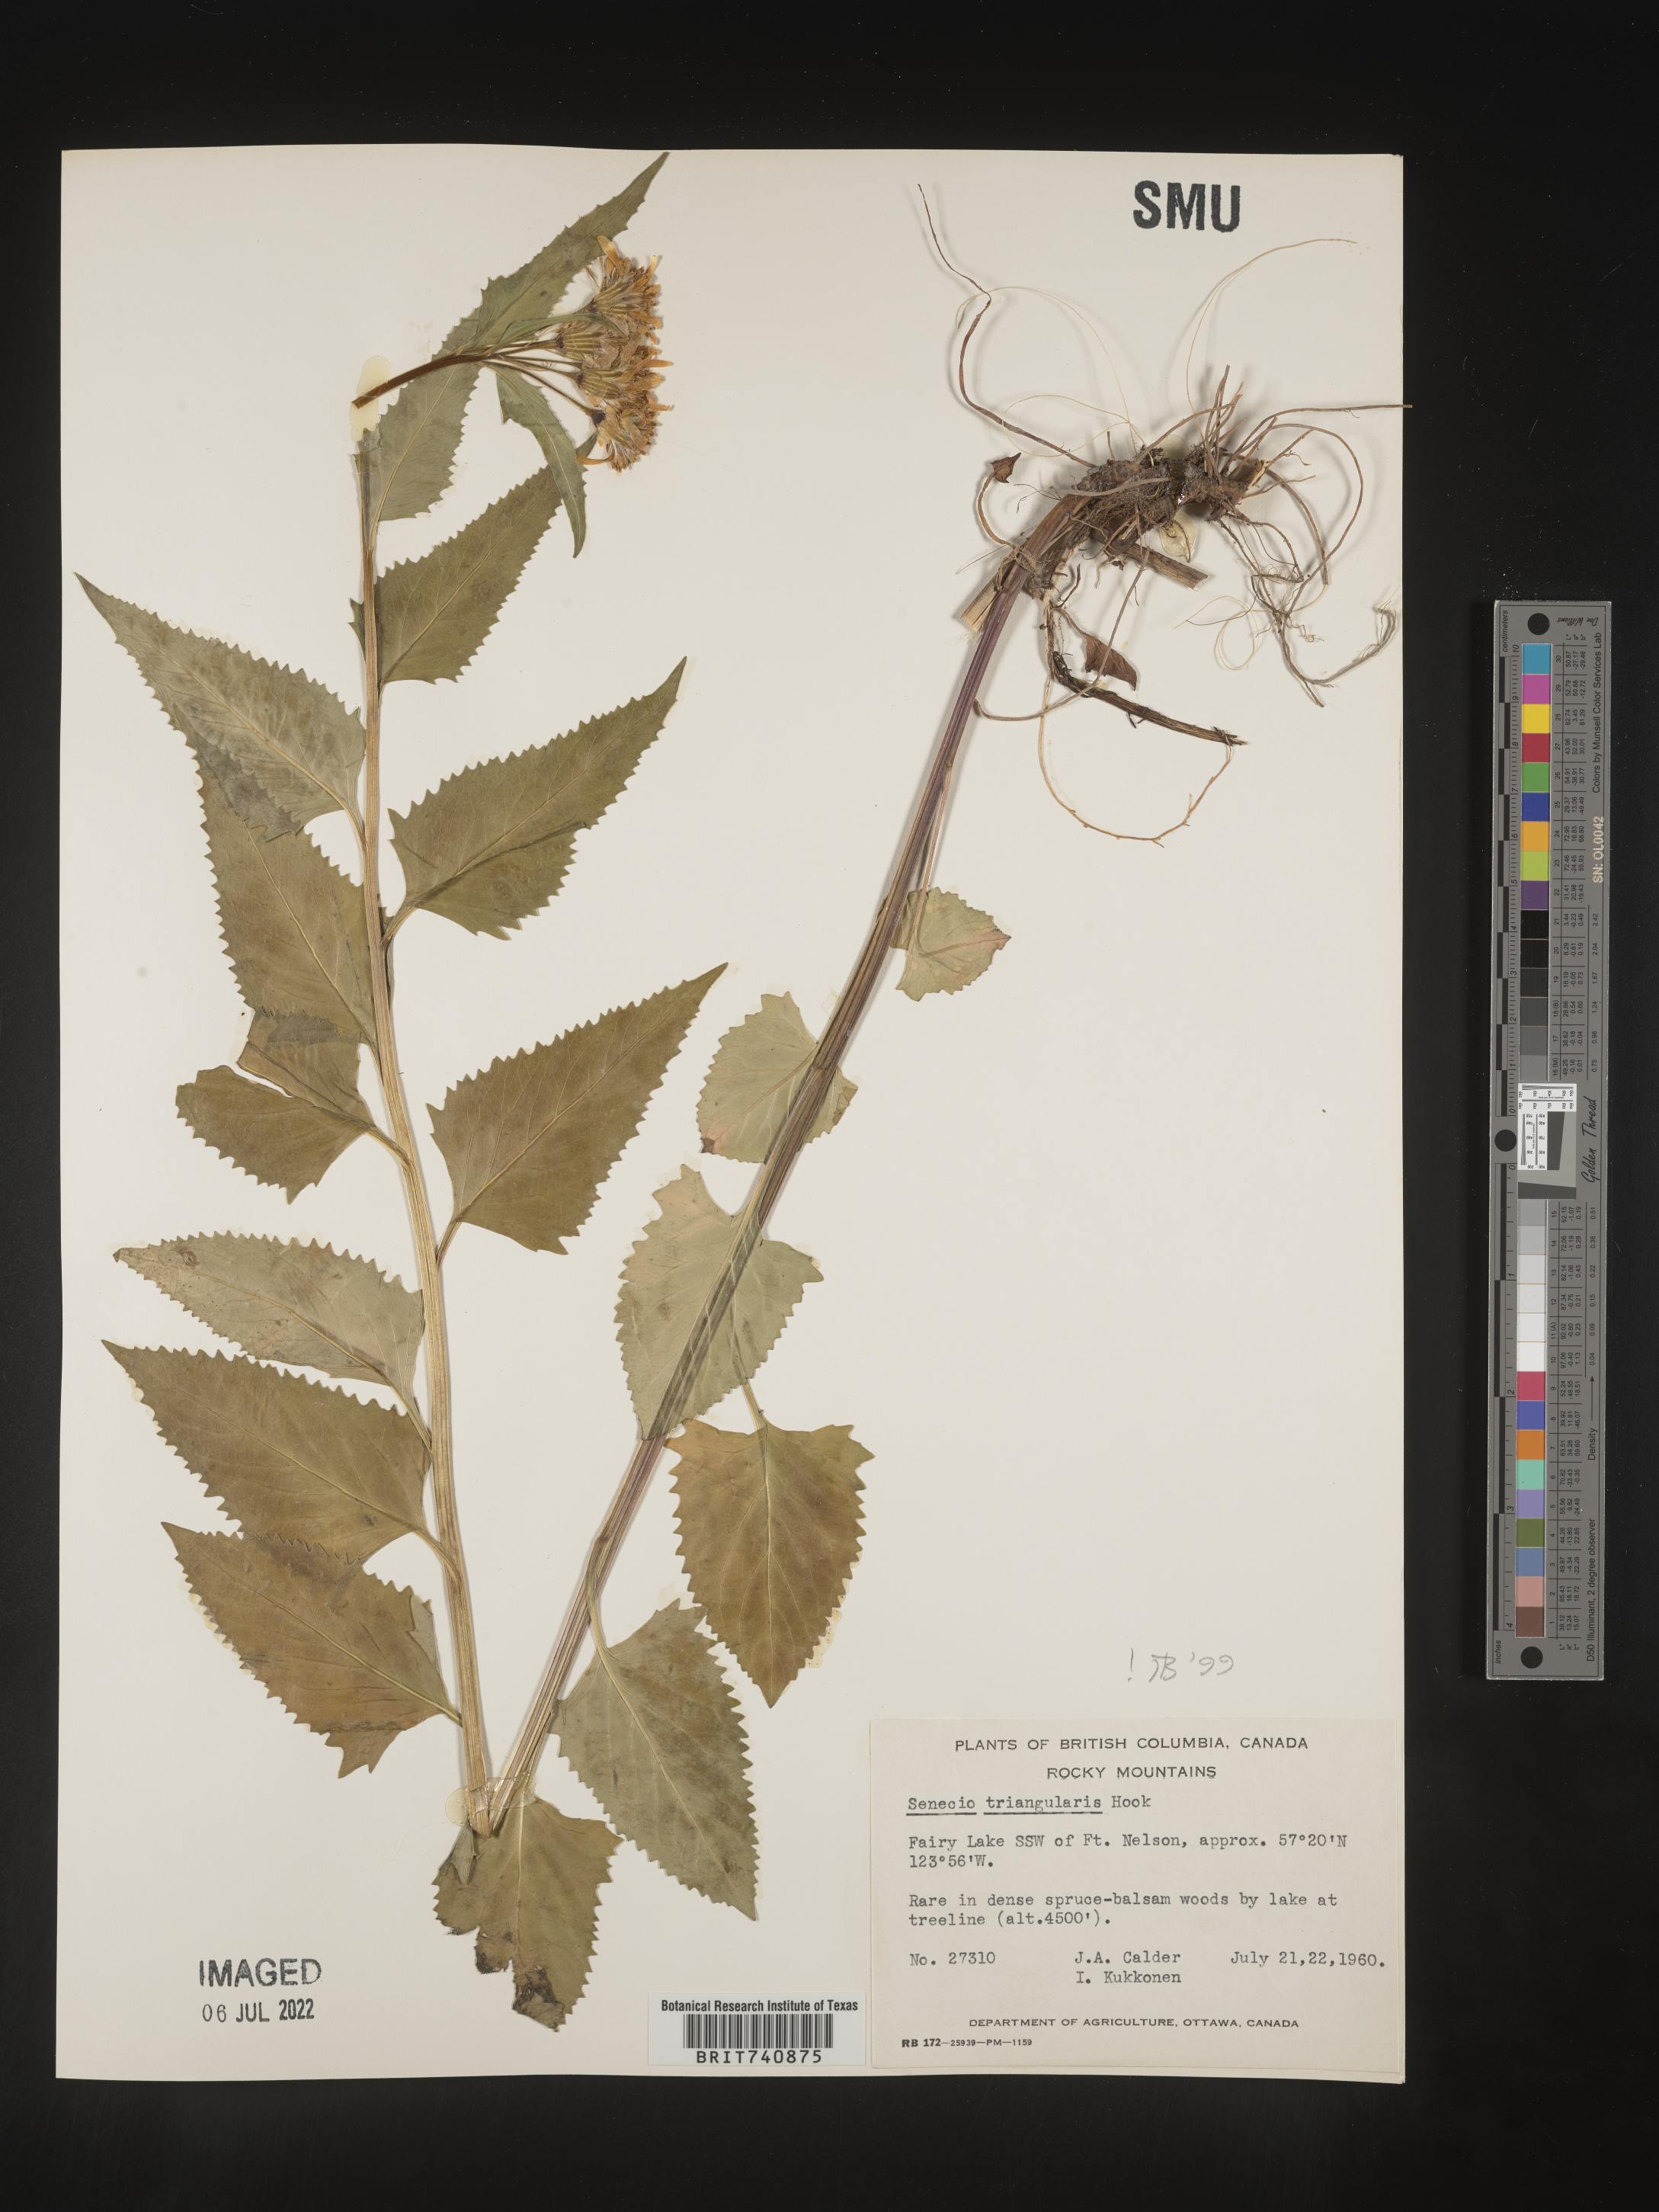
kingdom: Plantae
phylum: Tracheophyta
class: Magnoliopsida
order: Asterales
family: Asteraceae
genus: Senecio
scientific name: Senecio triangularis
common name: Arrowleaf butterweed
